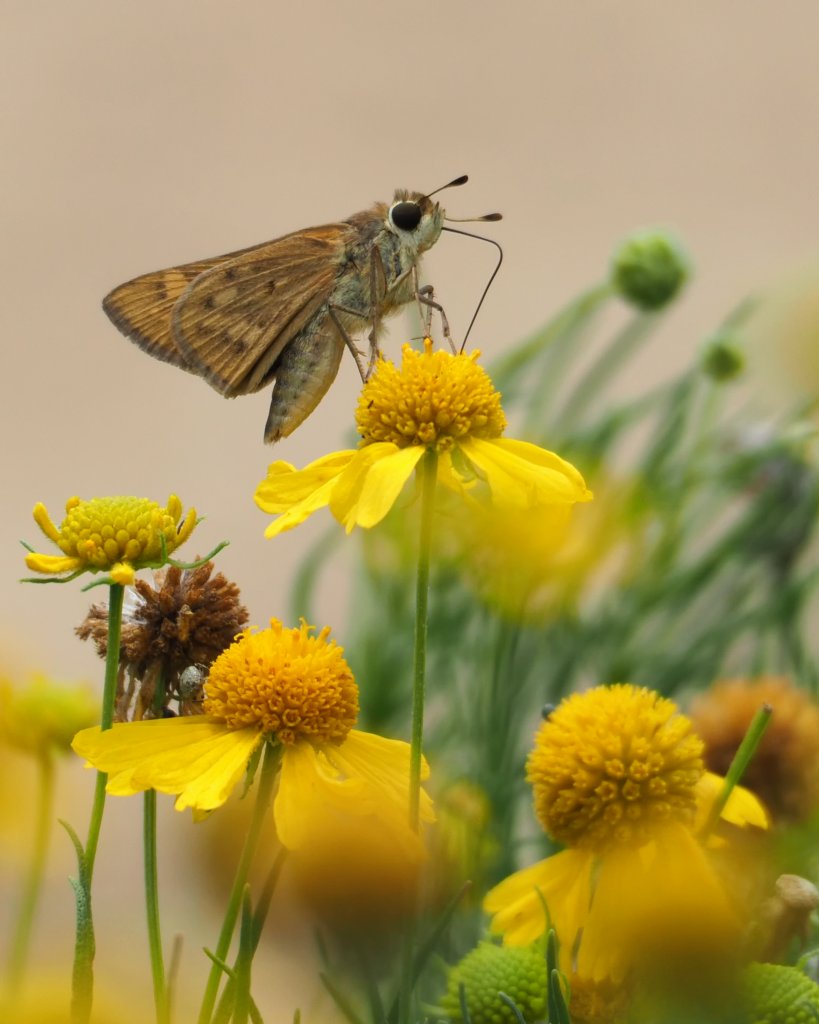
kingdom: Animalia
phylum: Arthropoda
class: Insecta
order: Lepidoptera
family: Hesperiidae
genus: Atalopedes
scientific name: Atalopedes campestris
